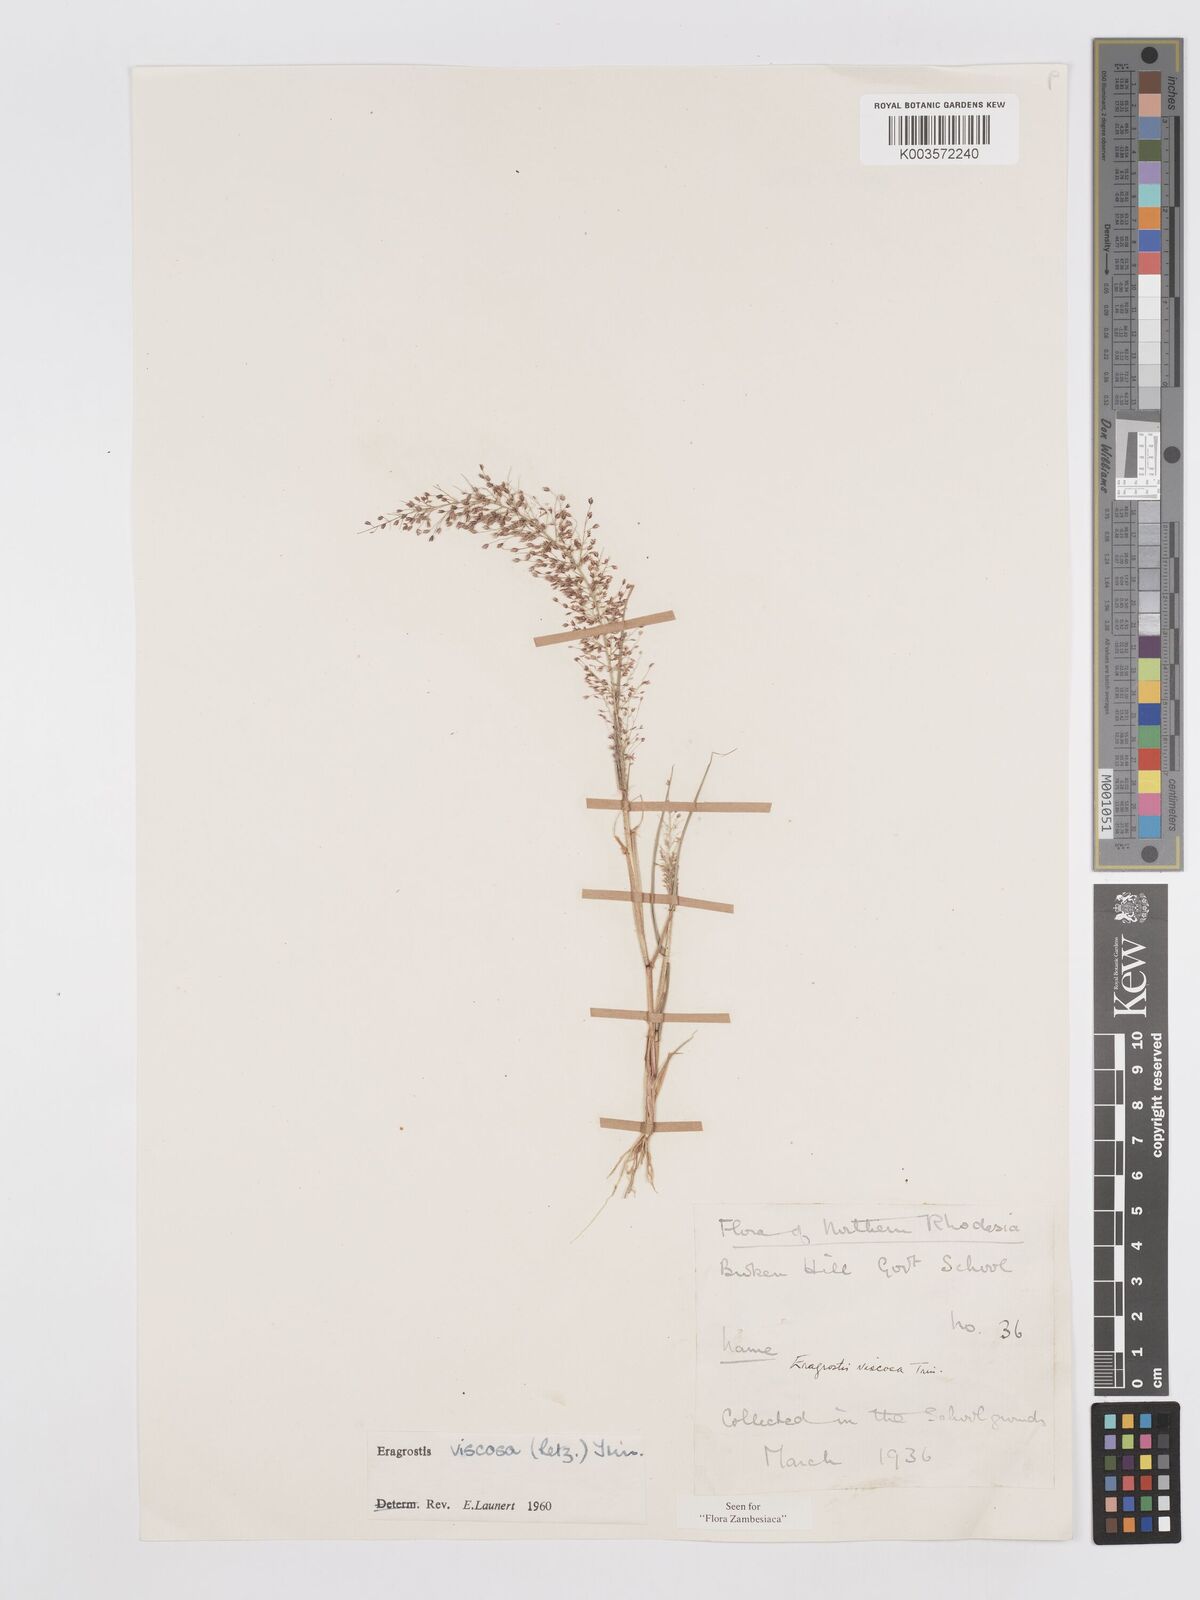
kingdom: Plantae
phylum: Tracheophyta
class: Liliopsida
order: Poales
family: Poaceae
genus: Eragrostis
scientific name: Eragrostis
